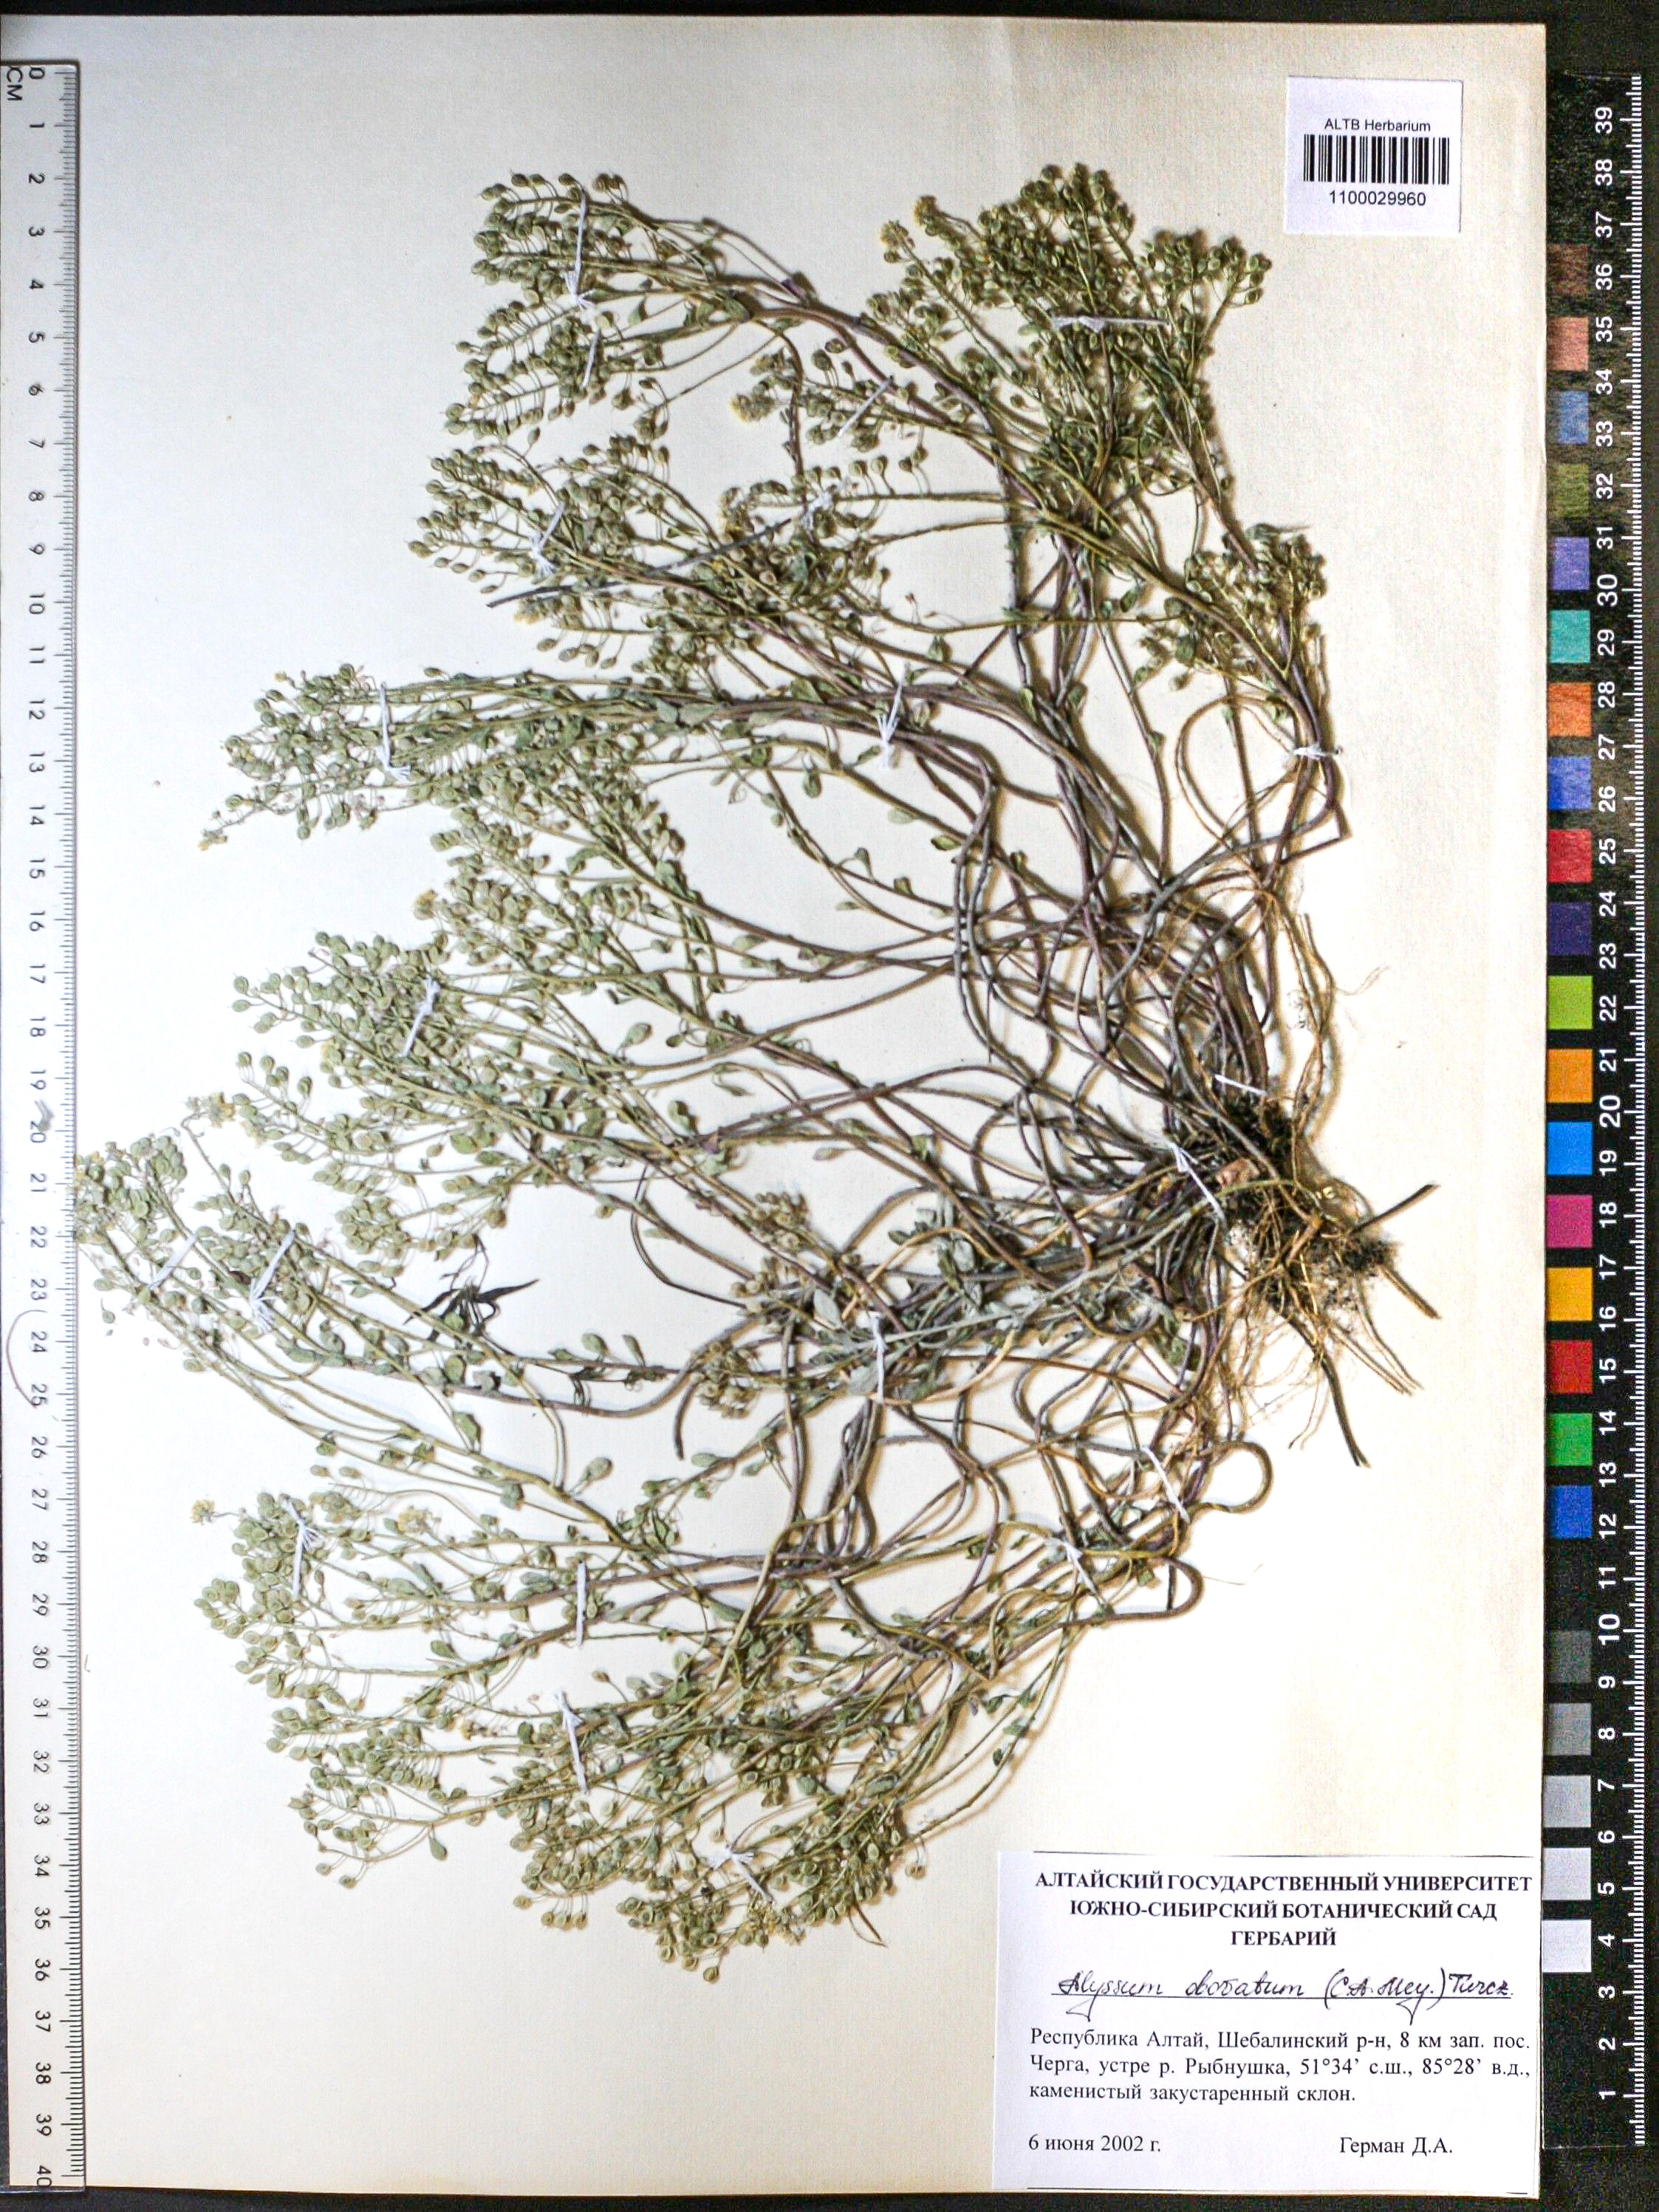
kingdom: Plantae
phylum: Tracheophyta
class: Magnoliopsida
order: Brassicales
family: Brassicaceae
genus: Odontarrhena
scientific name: Odontarrhena obovata
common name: American alyssum
